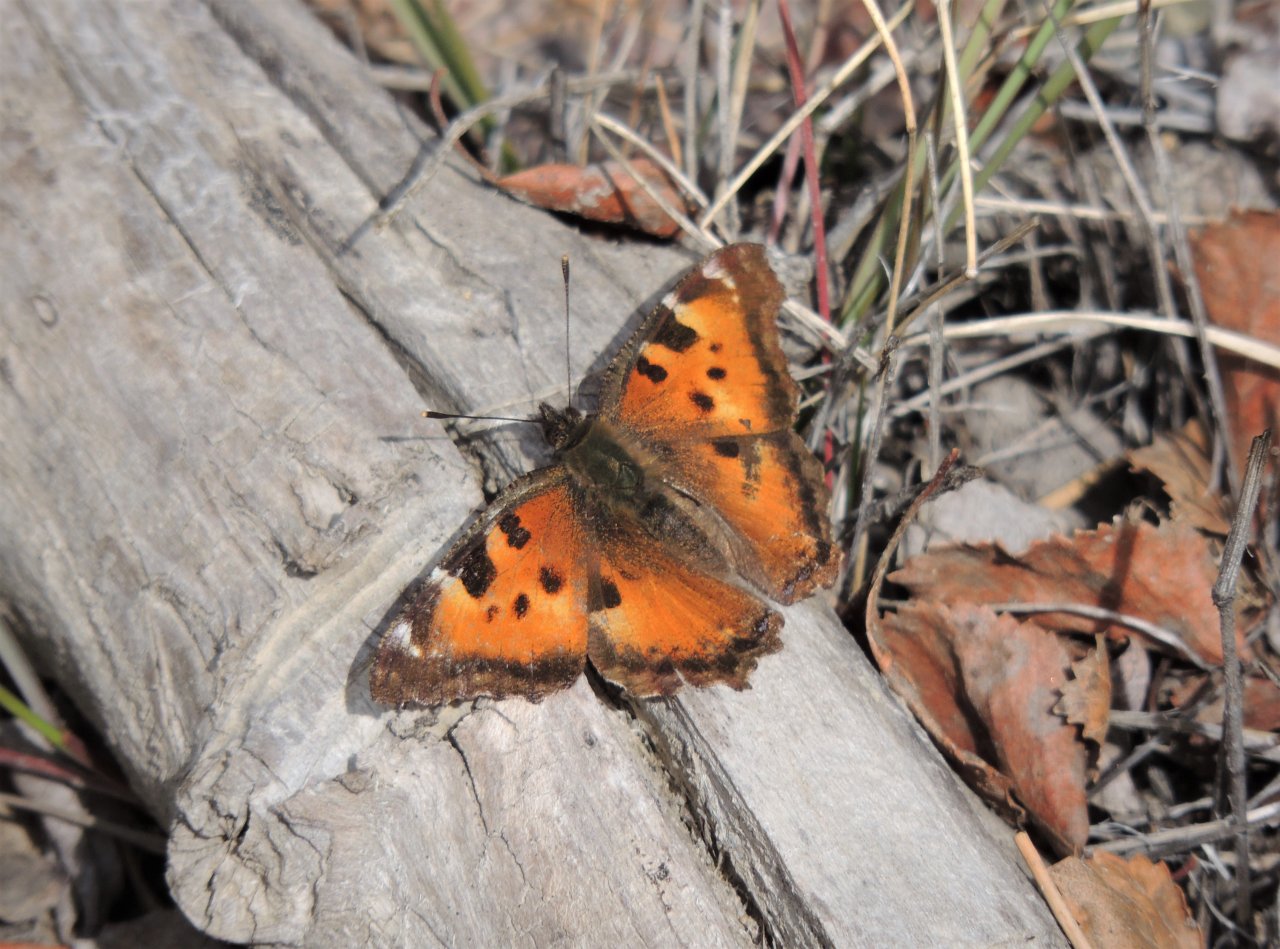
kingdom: Animalia
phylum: Arthropoda
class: Insecta
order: Lepidoptera
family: Nymphalidae
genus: Nymphalis
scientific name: Nymphalis californica
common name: California Tortoiseshell
